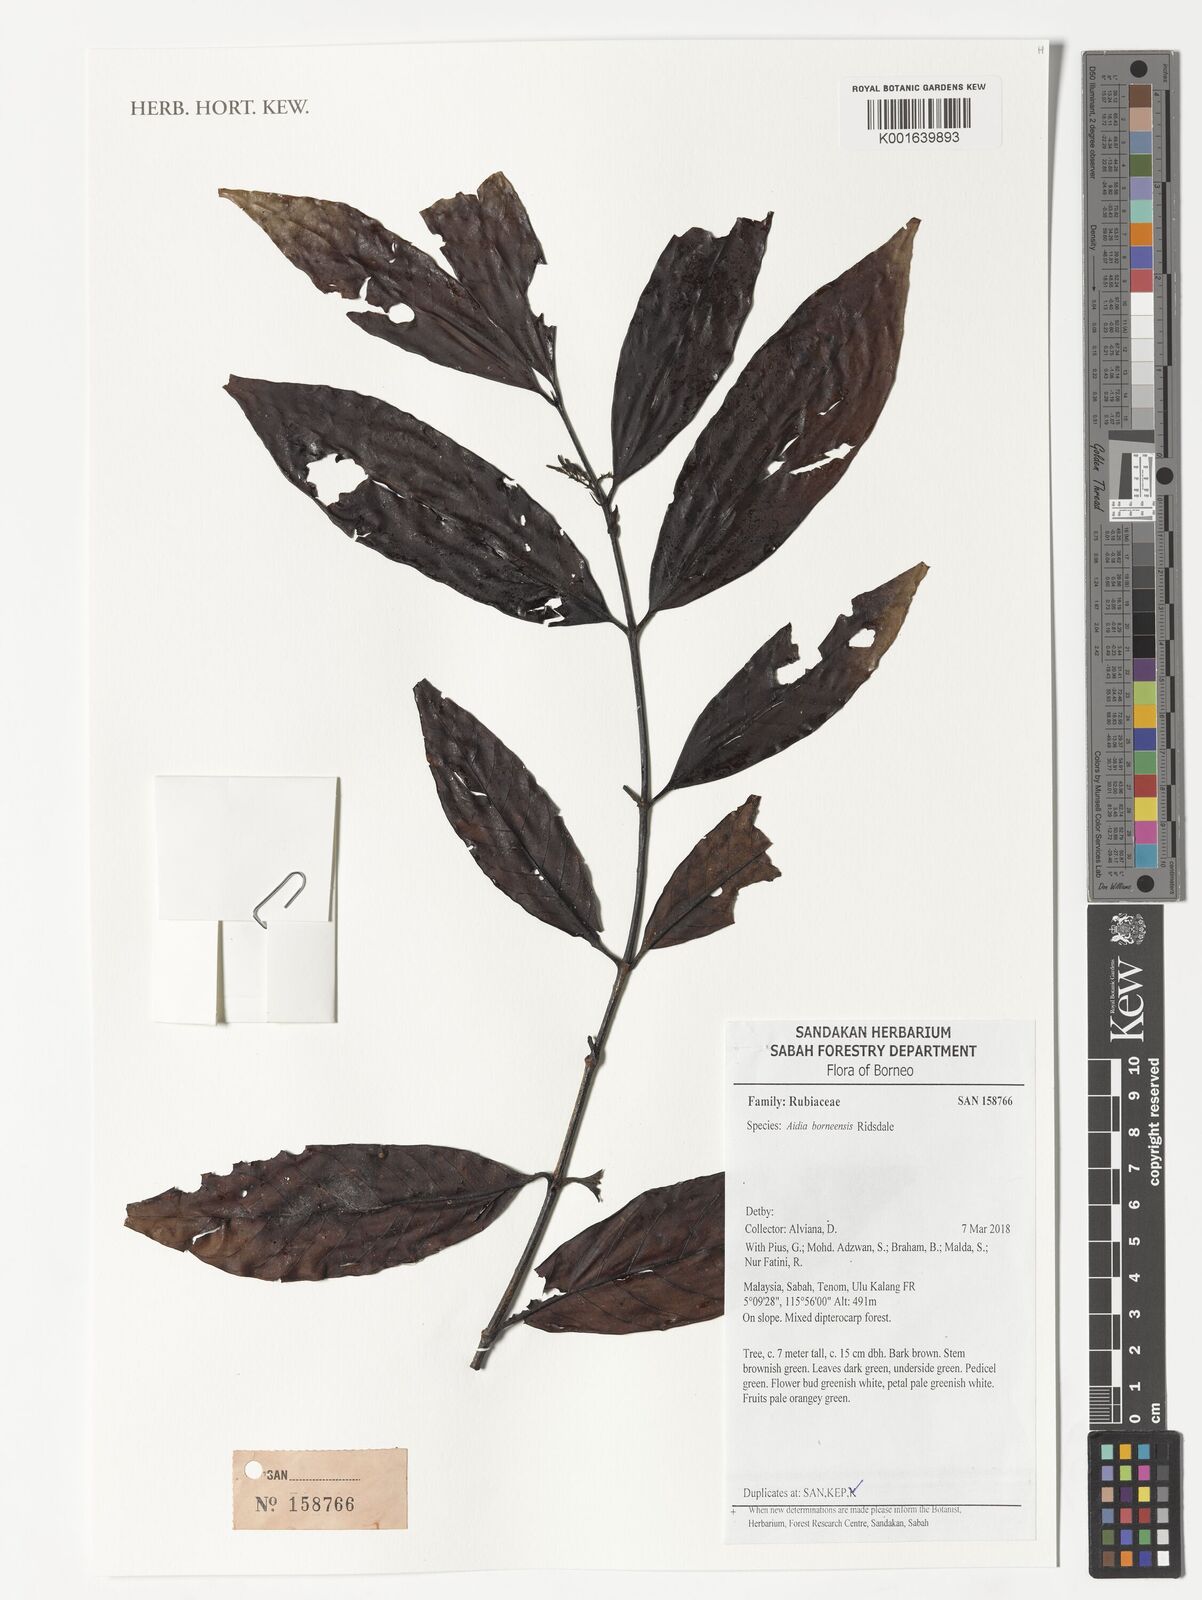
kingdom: Plantae
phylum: Tracheophyta
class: Magnoliopsida
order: Gentianales
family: Rubiaceae
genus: Aidia
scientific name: Aidia borneensis
